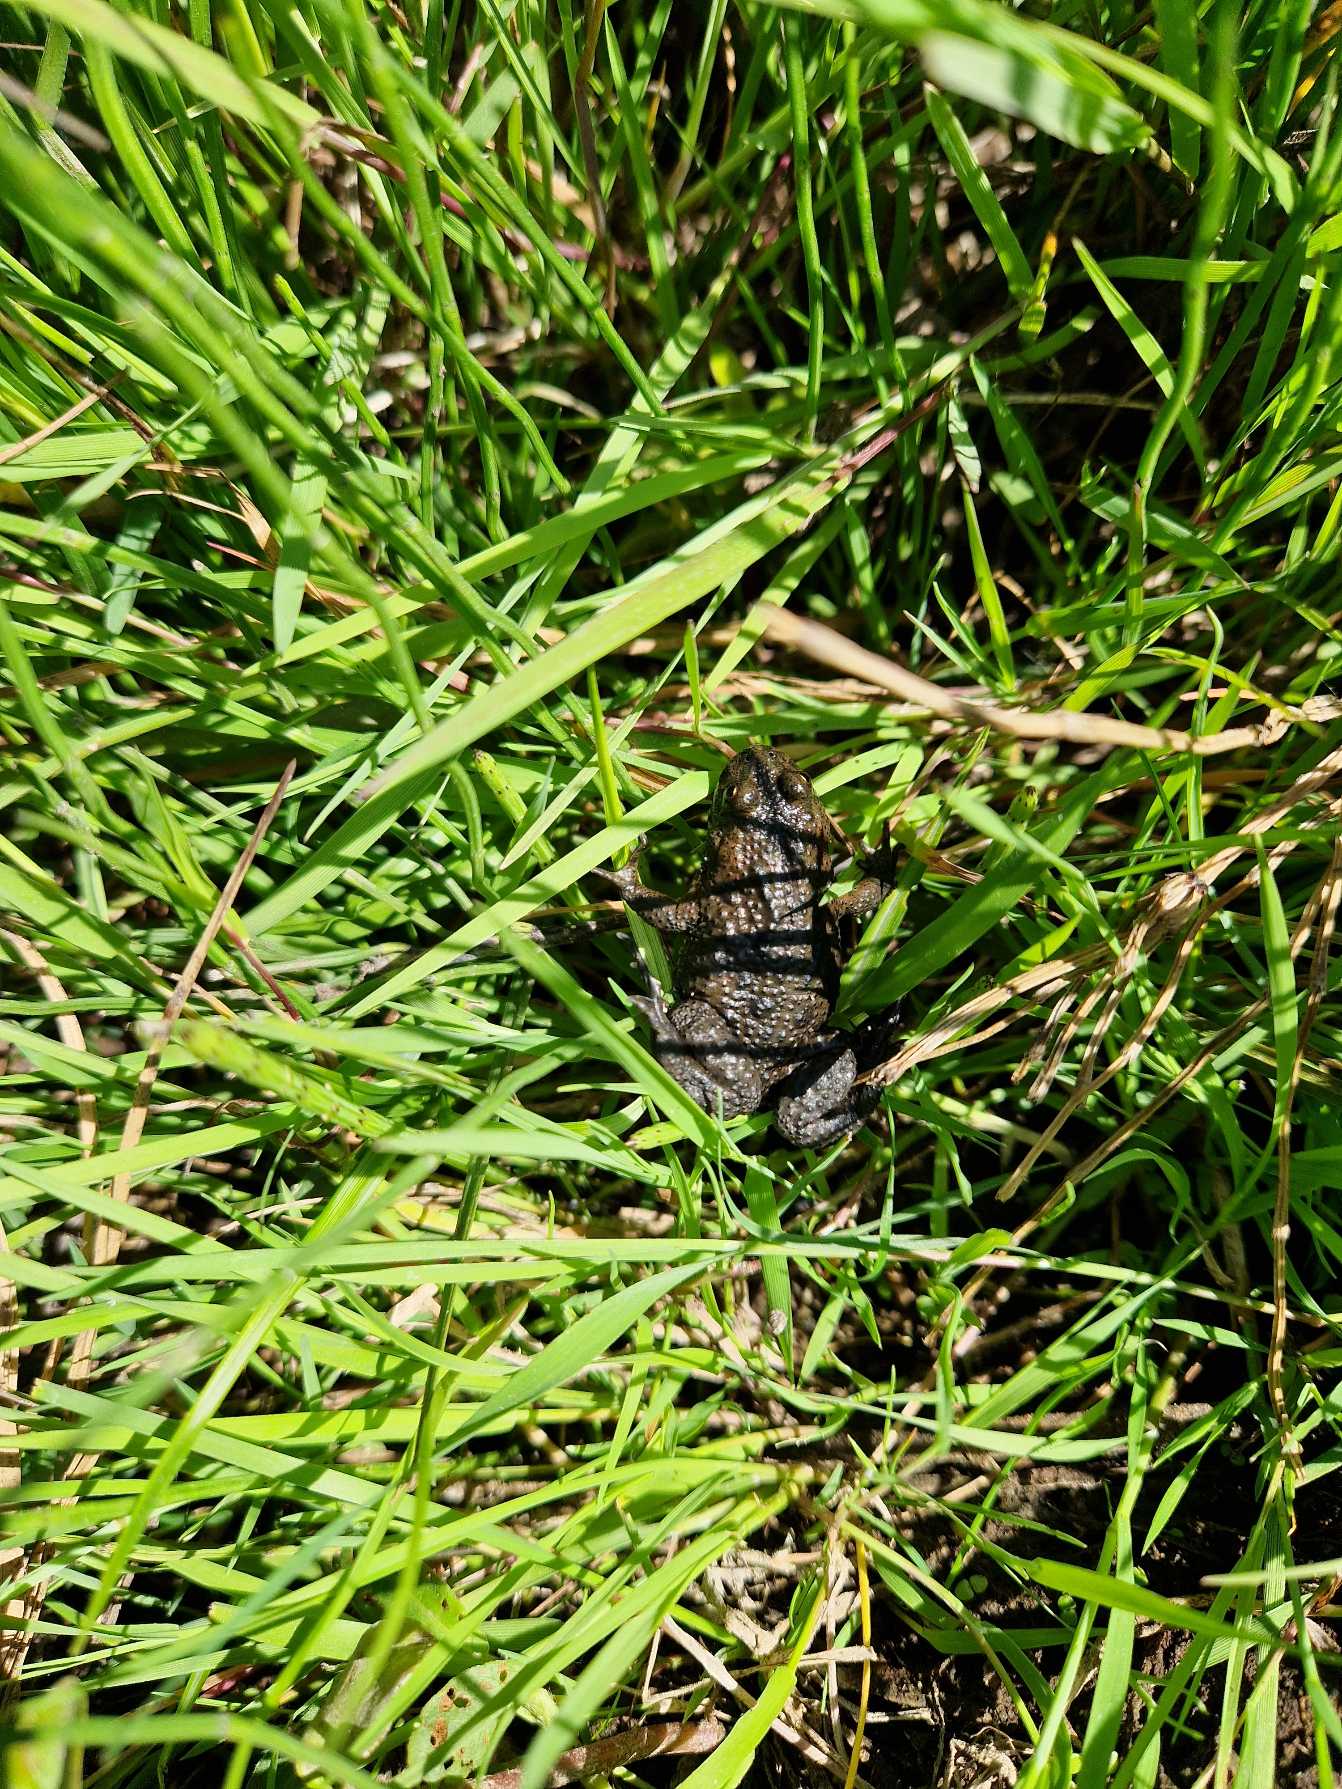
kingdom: Animalia
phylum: Chordata
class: Amphibia
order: Anura
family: Bombinatoridae
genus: Bombina
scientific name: Bombina bombina
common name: Klokkefrø
